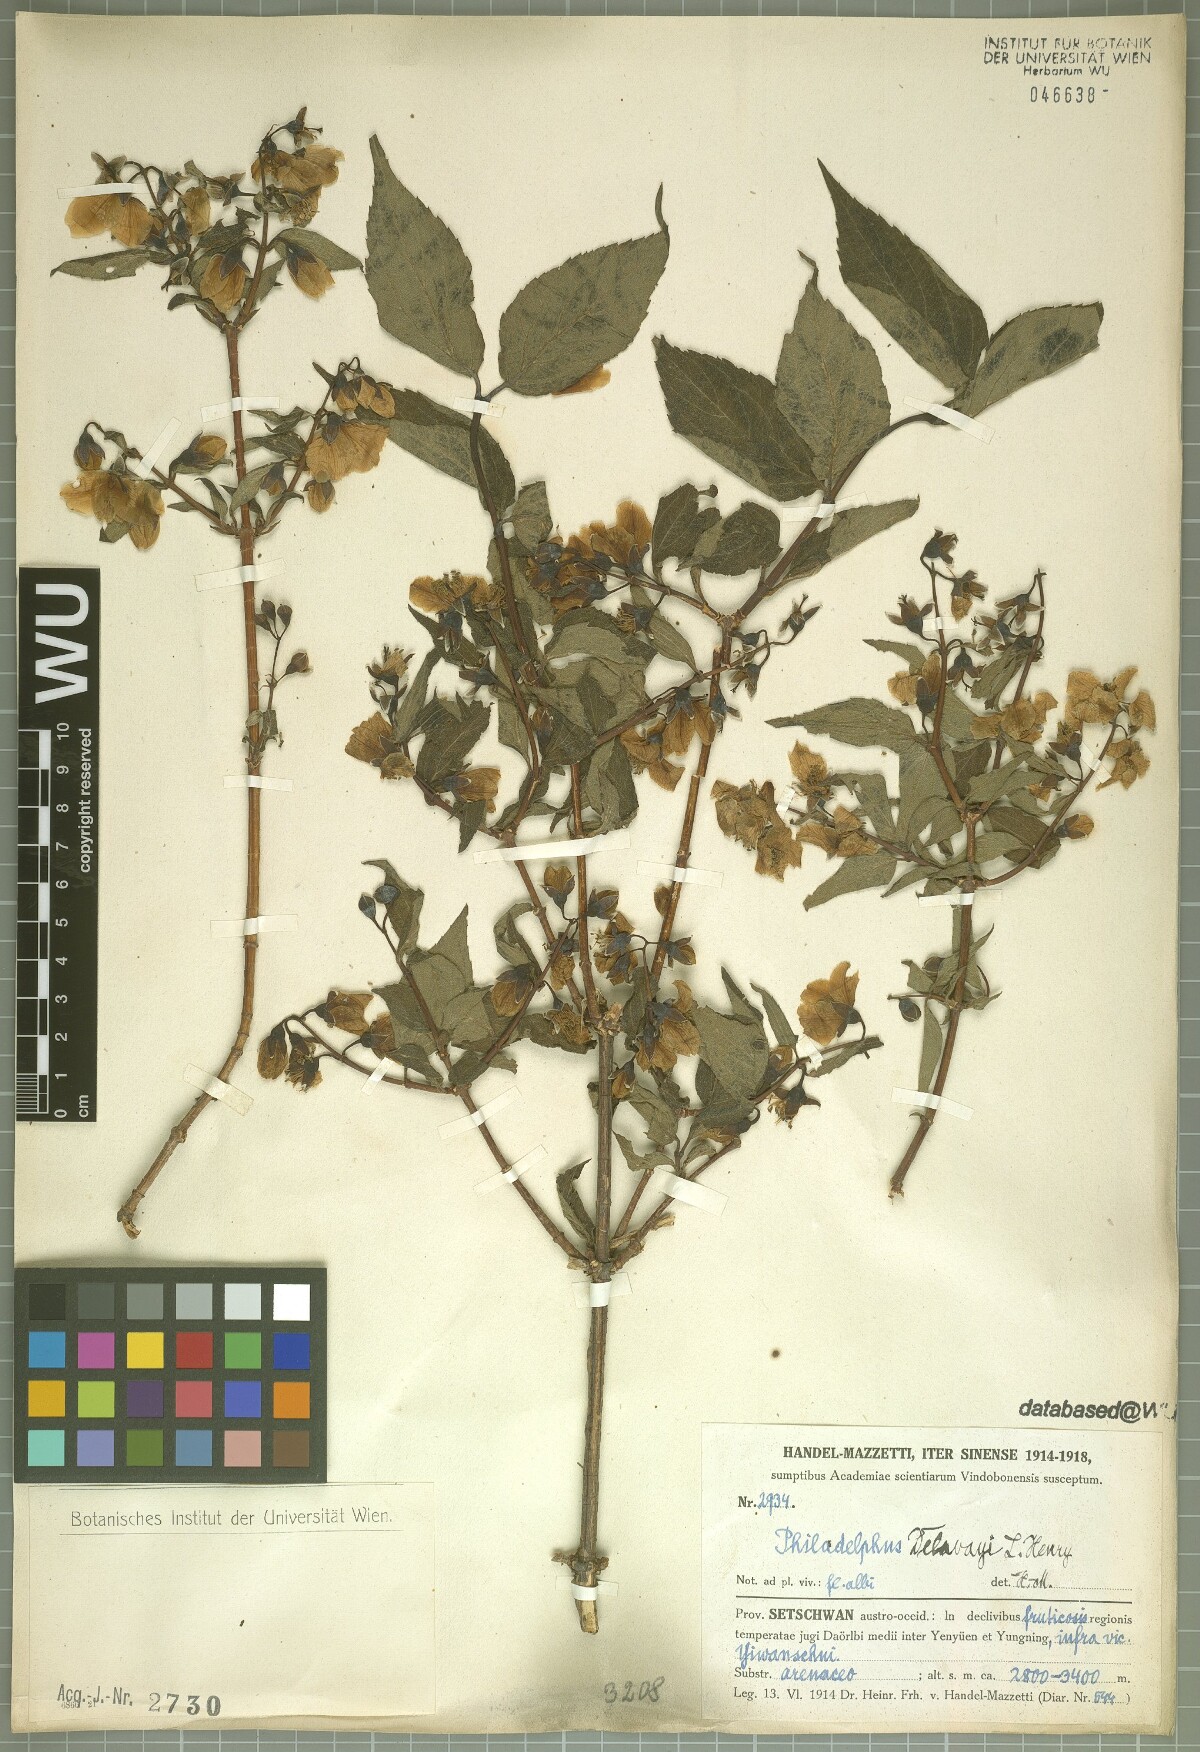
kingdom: Plantae
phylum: Tracheophyta
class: Magnoliopsida
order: Cornales
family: Hydrangeaceae
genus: Philadelphus
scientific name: Philadelphus delavayi
